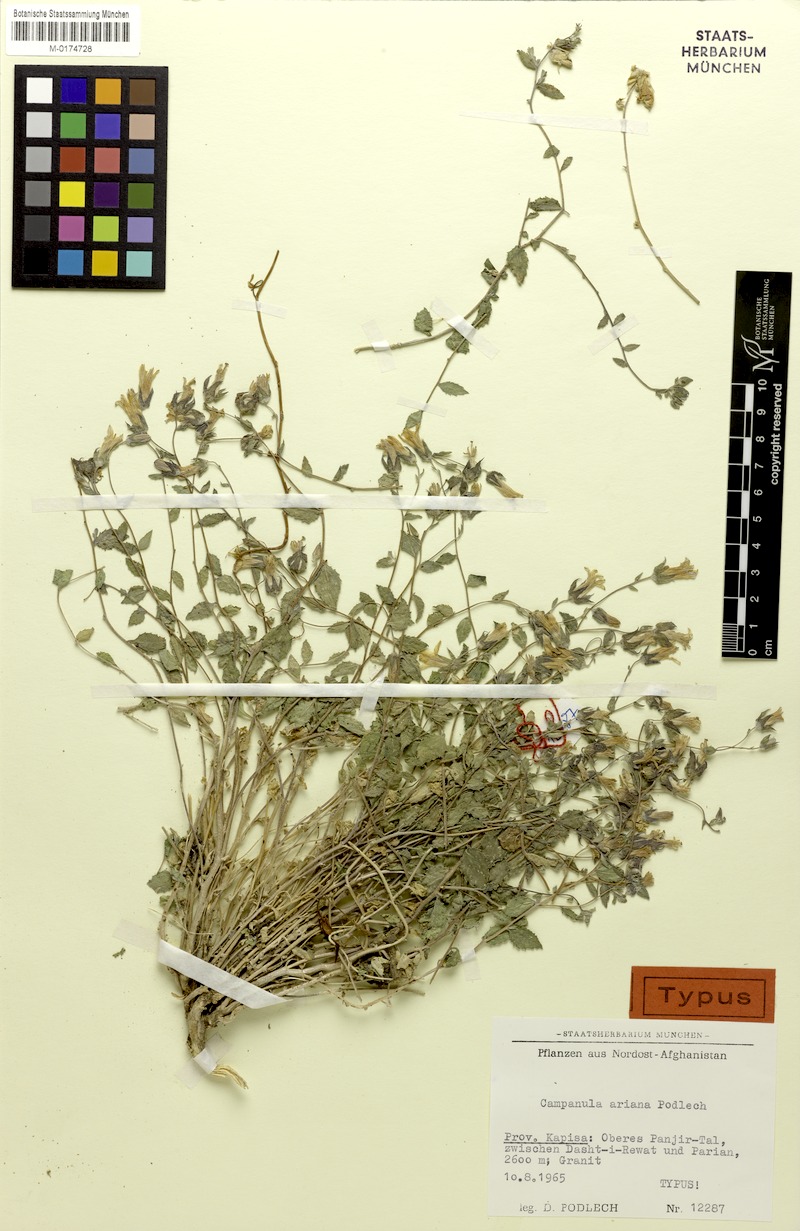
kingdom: Plantae
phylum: Tracheophyta
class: Magnoliopsida
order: Asterales
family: Campanulaceae
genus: Campanula
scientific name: Campanula ariana
